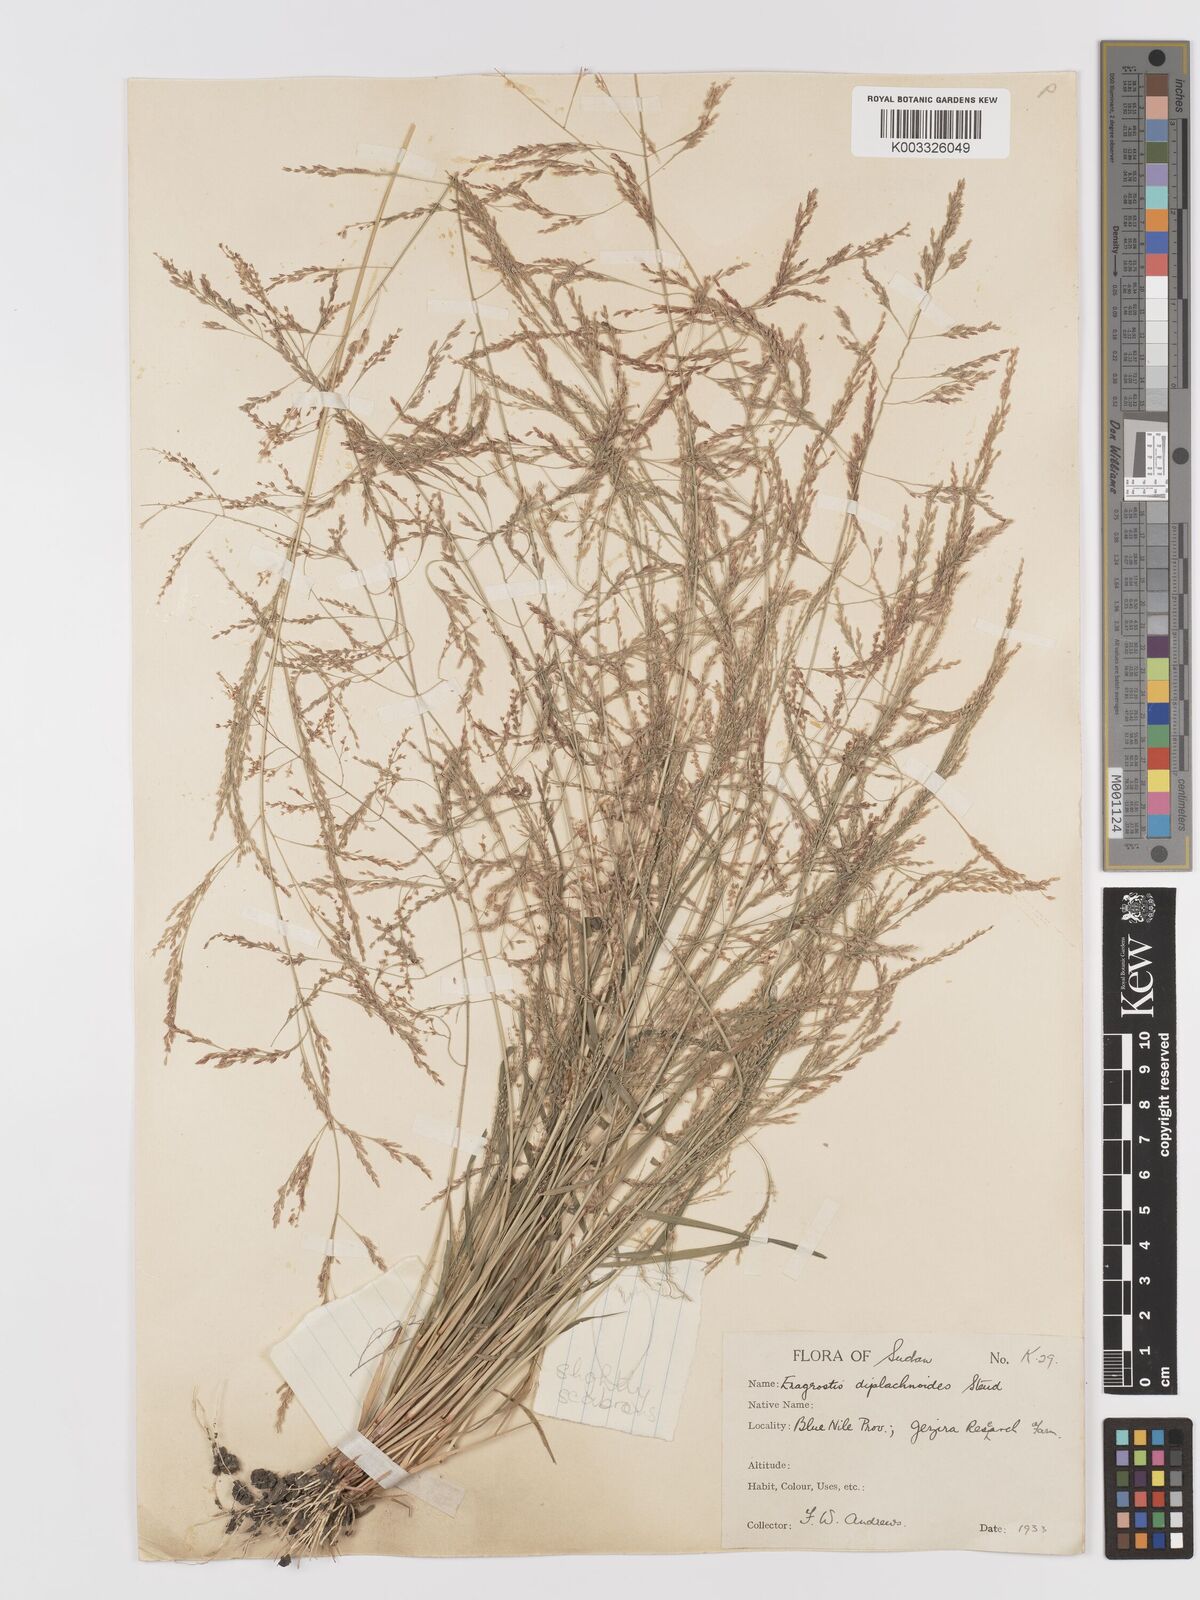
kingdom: Plantae
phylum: Tracheophyta
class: Liliopsida
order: Poales
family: Poaceae
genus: Eragrostis
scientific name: Eragrostis japonica
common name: Pond lovegrass
